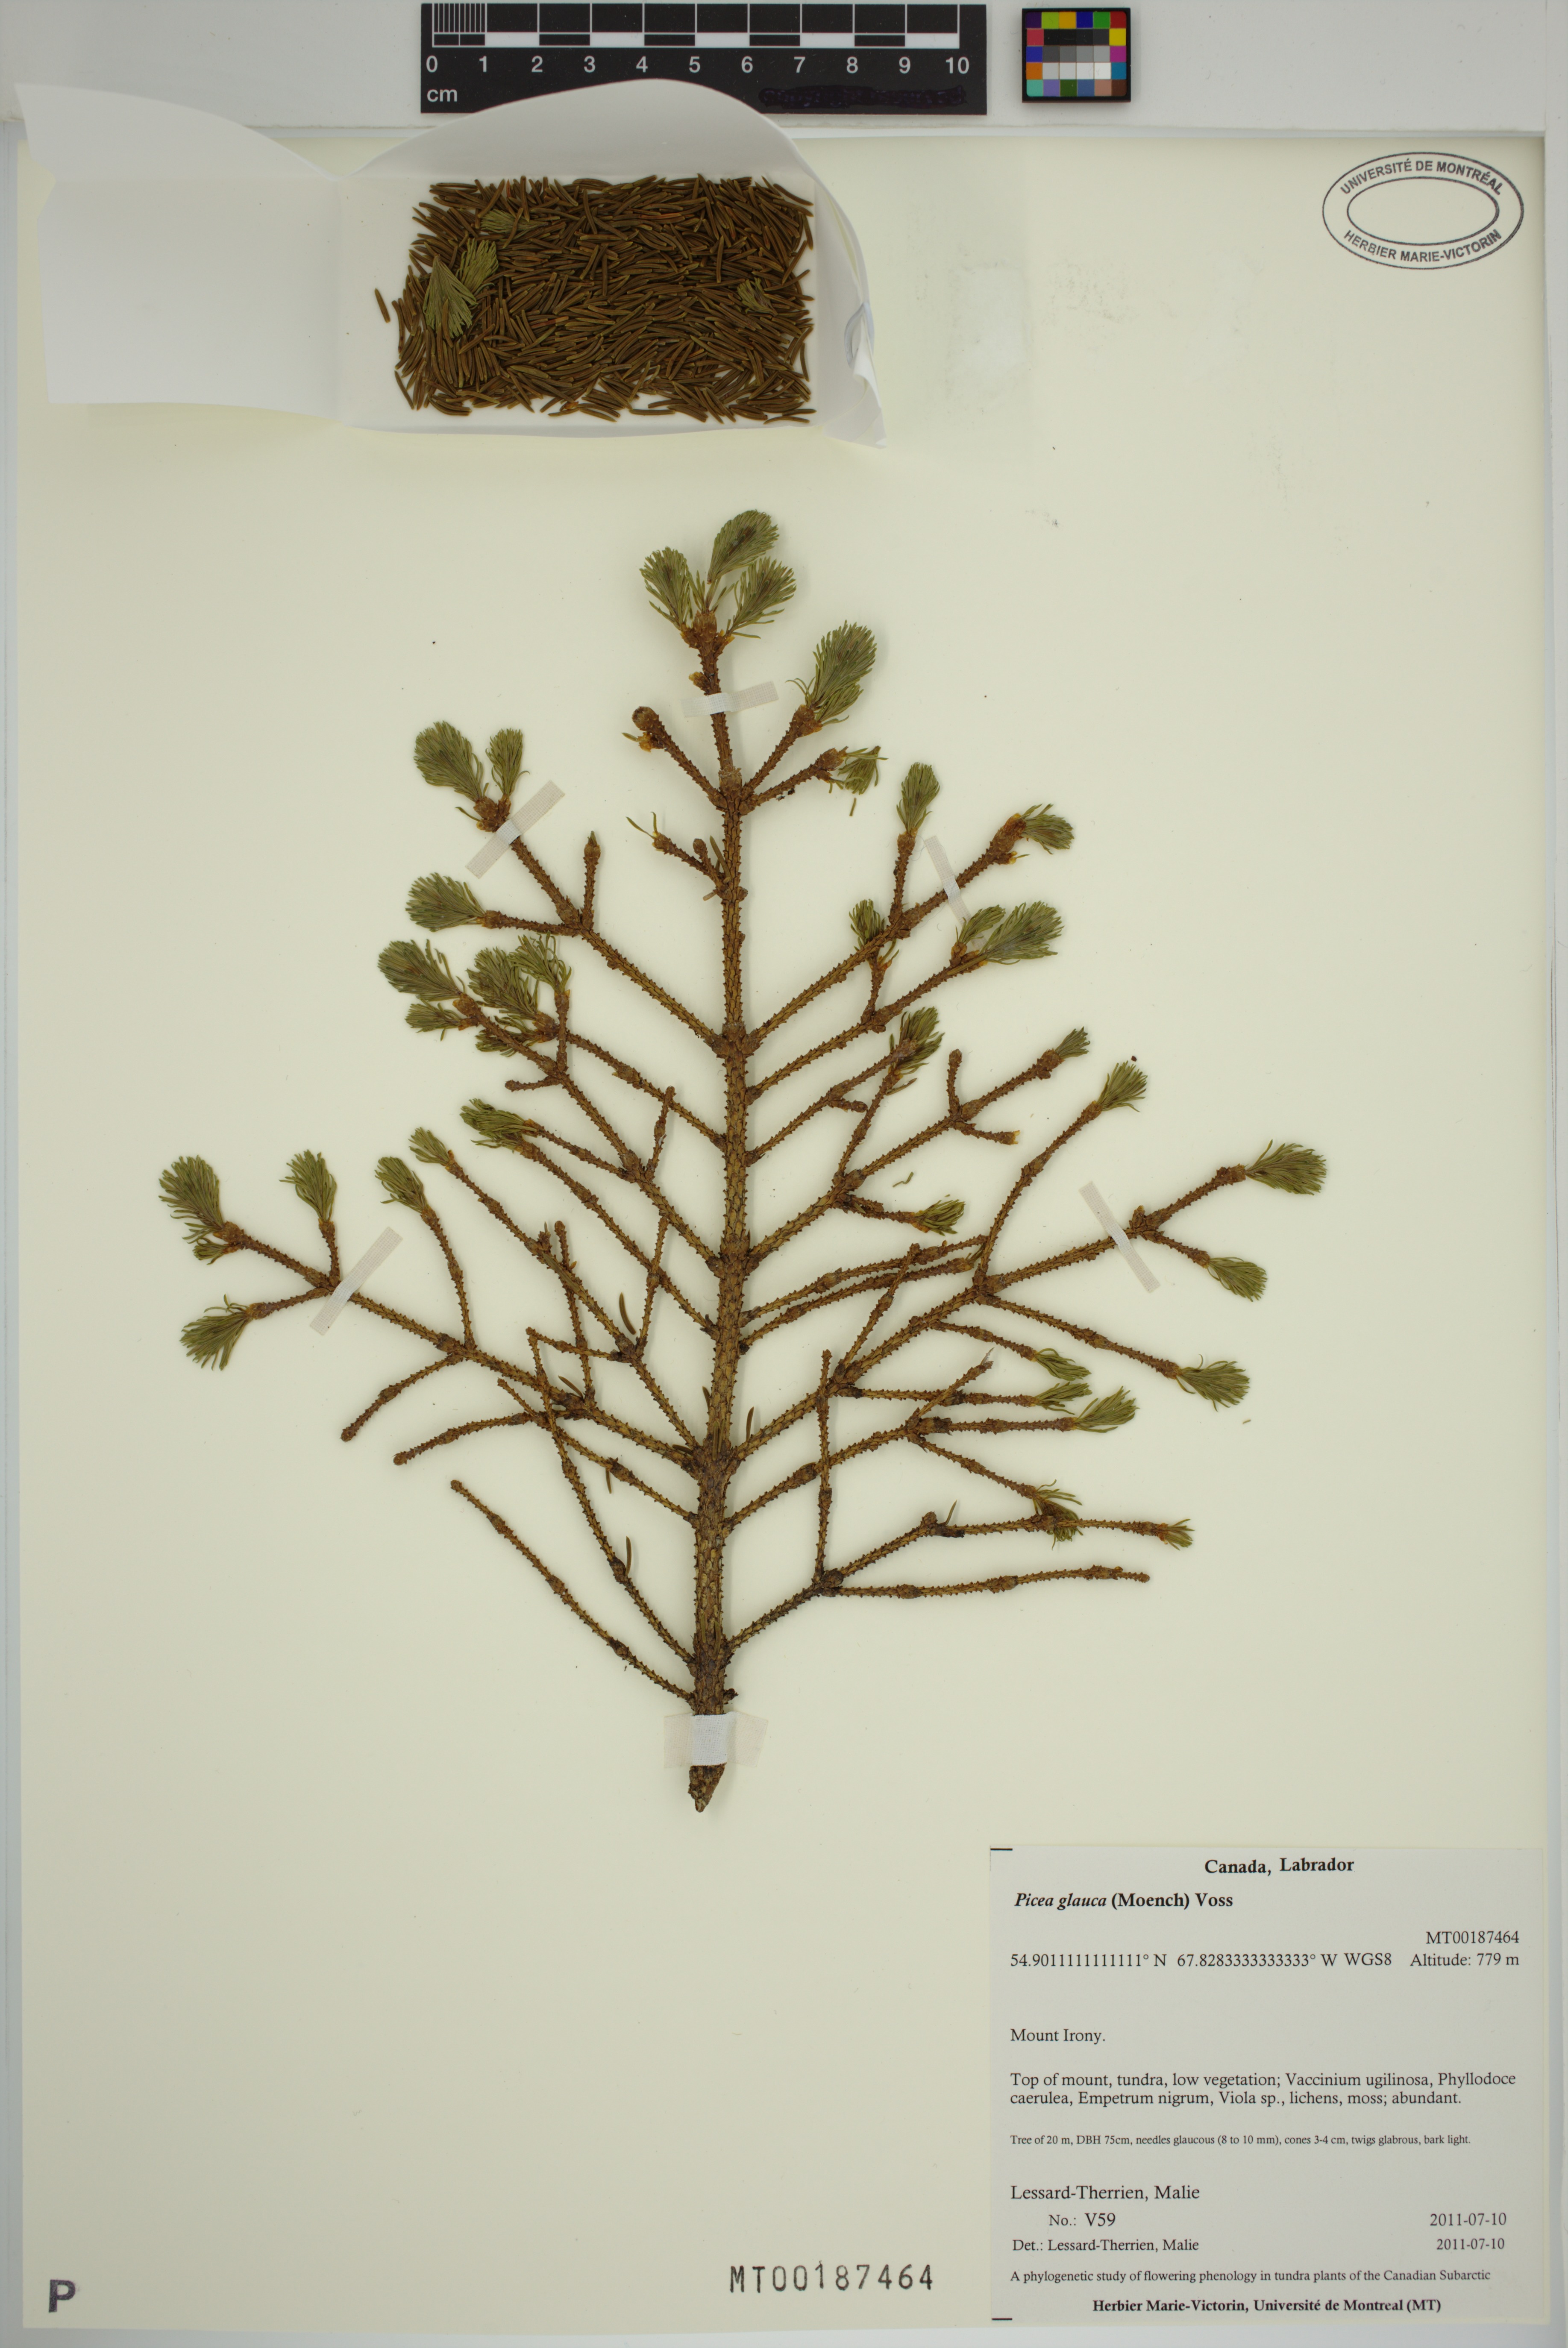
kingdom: Plantae
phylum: Tracheophyta
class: Pinopsida
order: Pinales
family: Pinaceae
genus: Picea
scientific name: Picea glauca
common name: White spruce
